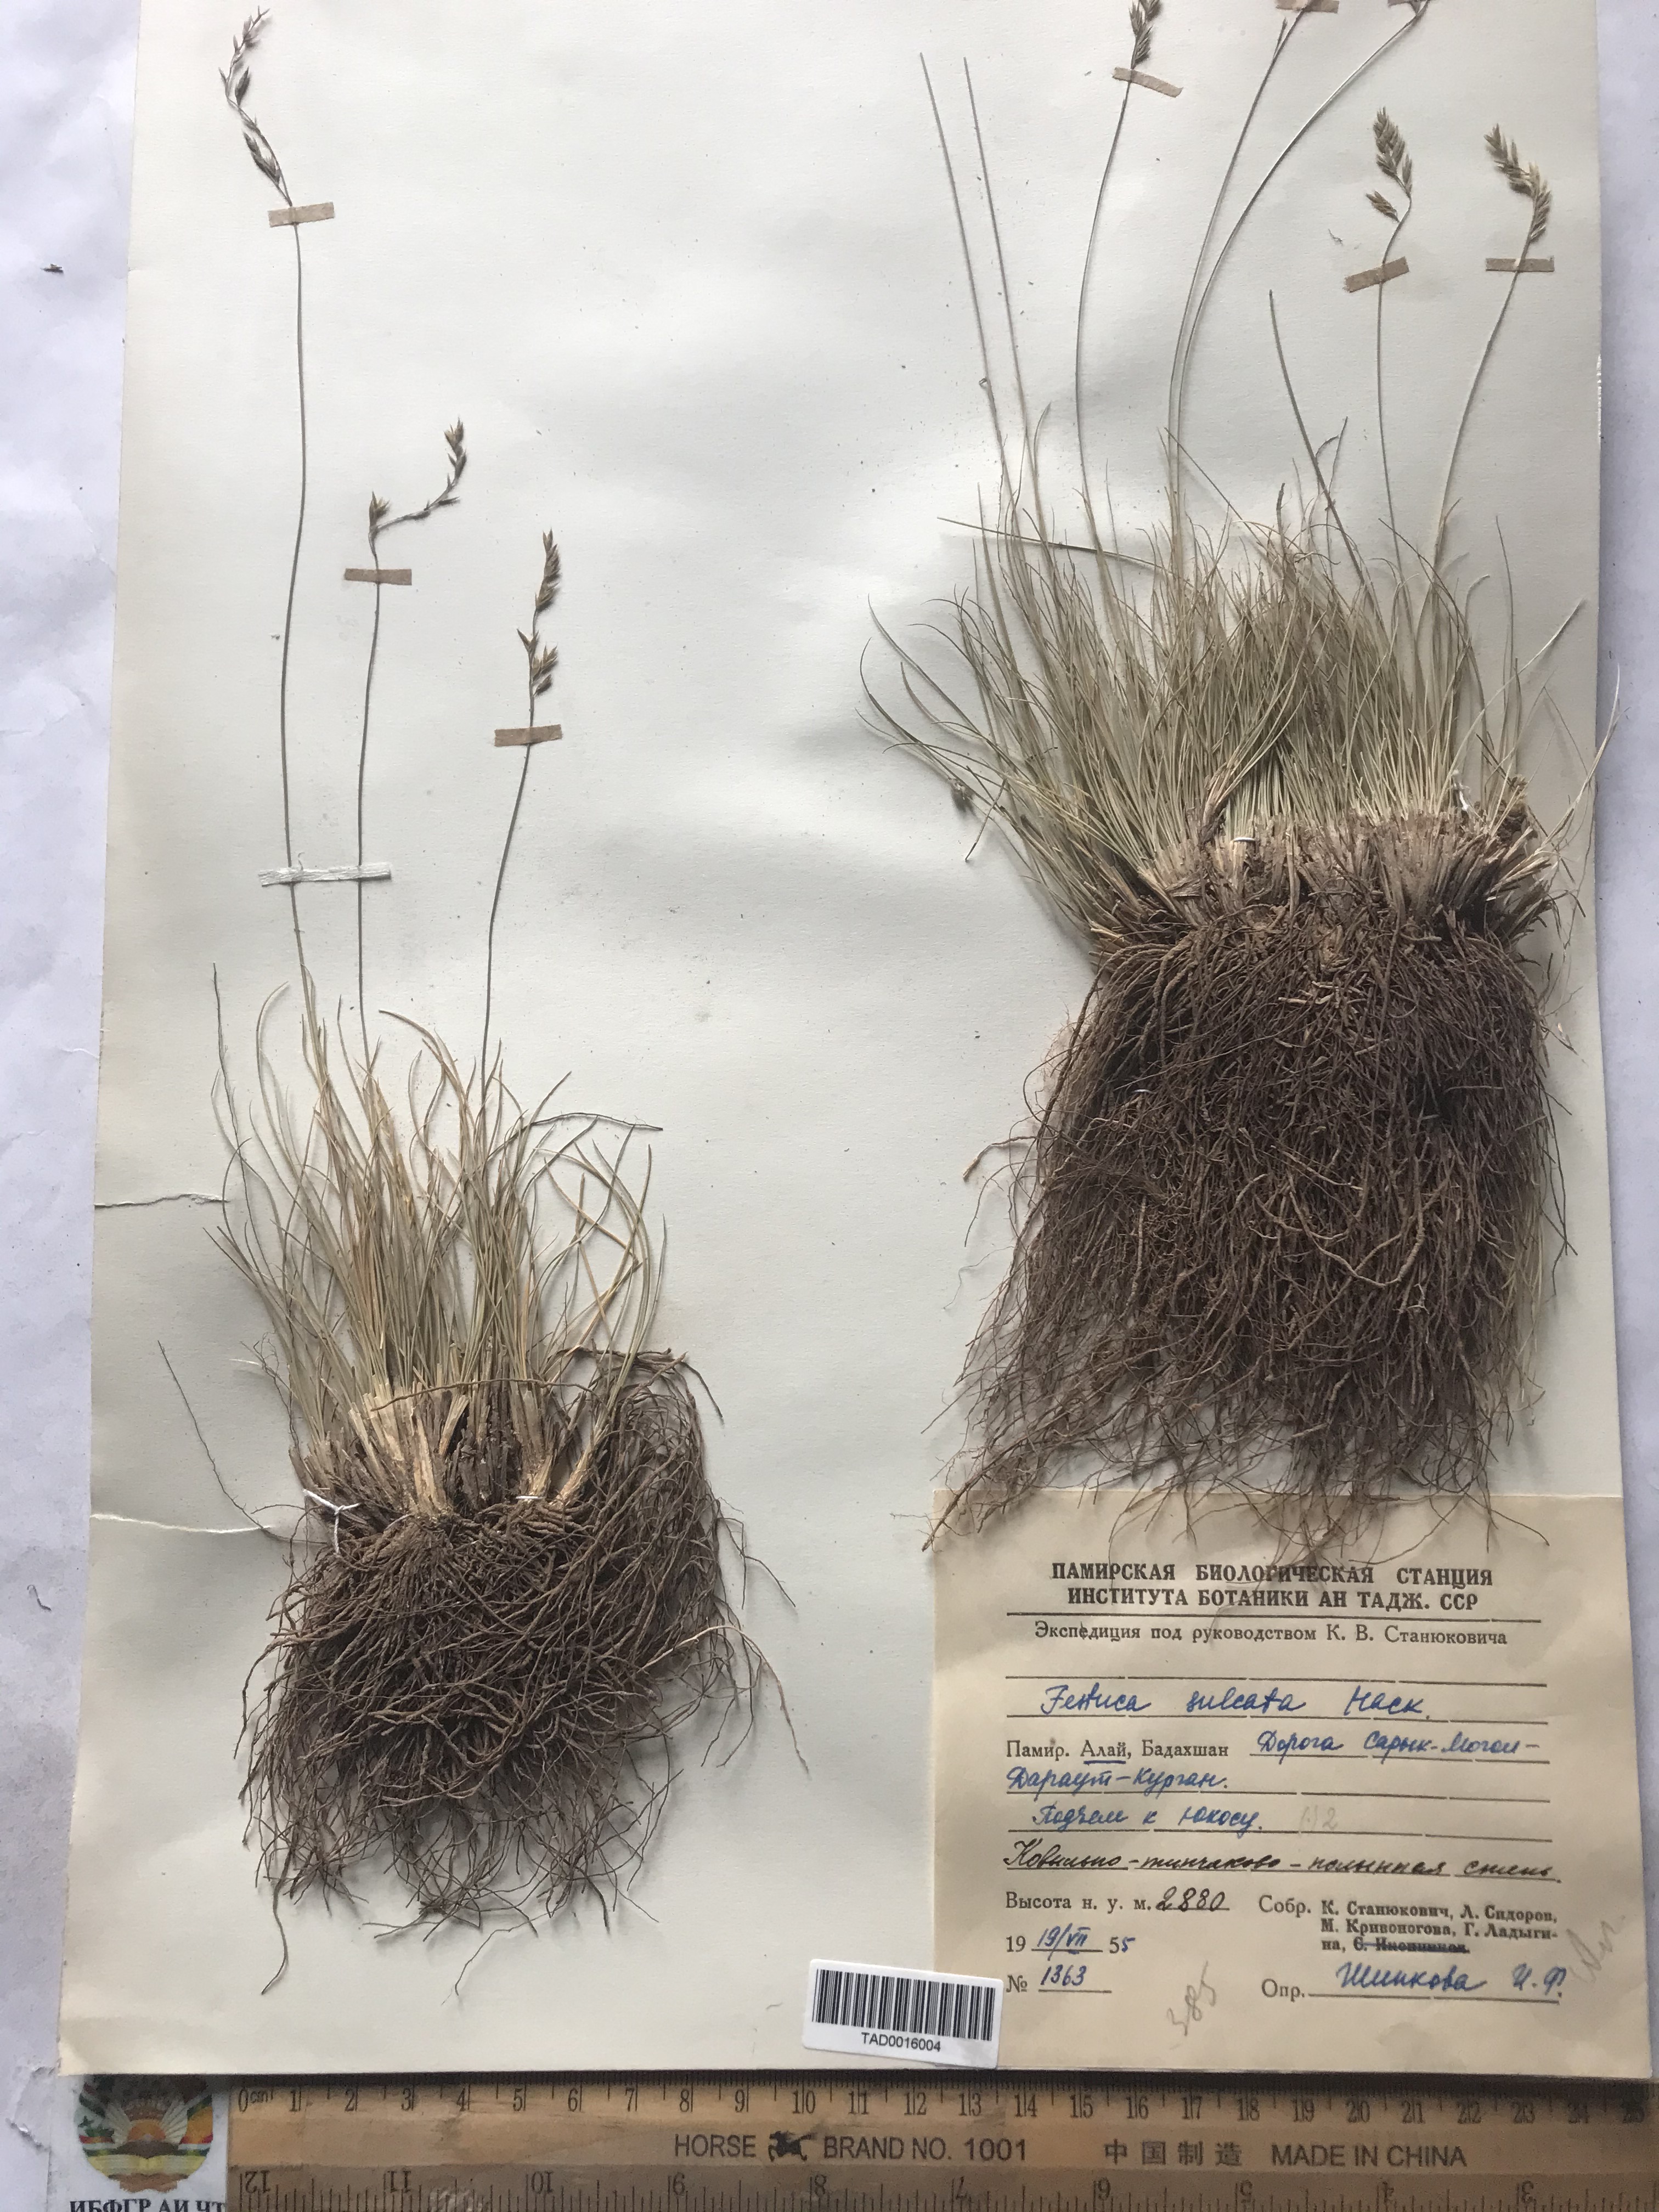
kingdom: Plantae
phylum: Tracheophyta
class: Liliopsida
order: Poales
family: Poaceae
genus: Festuca
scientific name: Festuca sulcata
